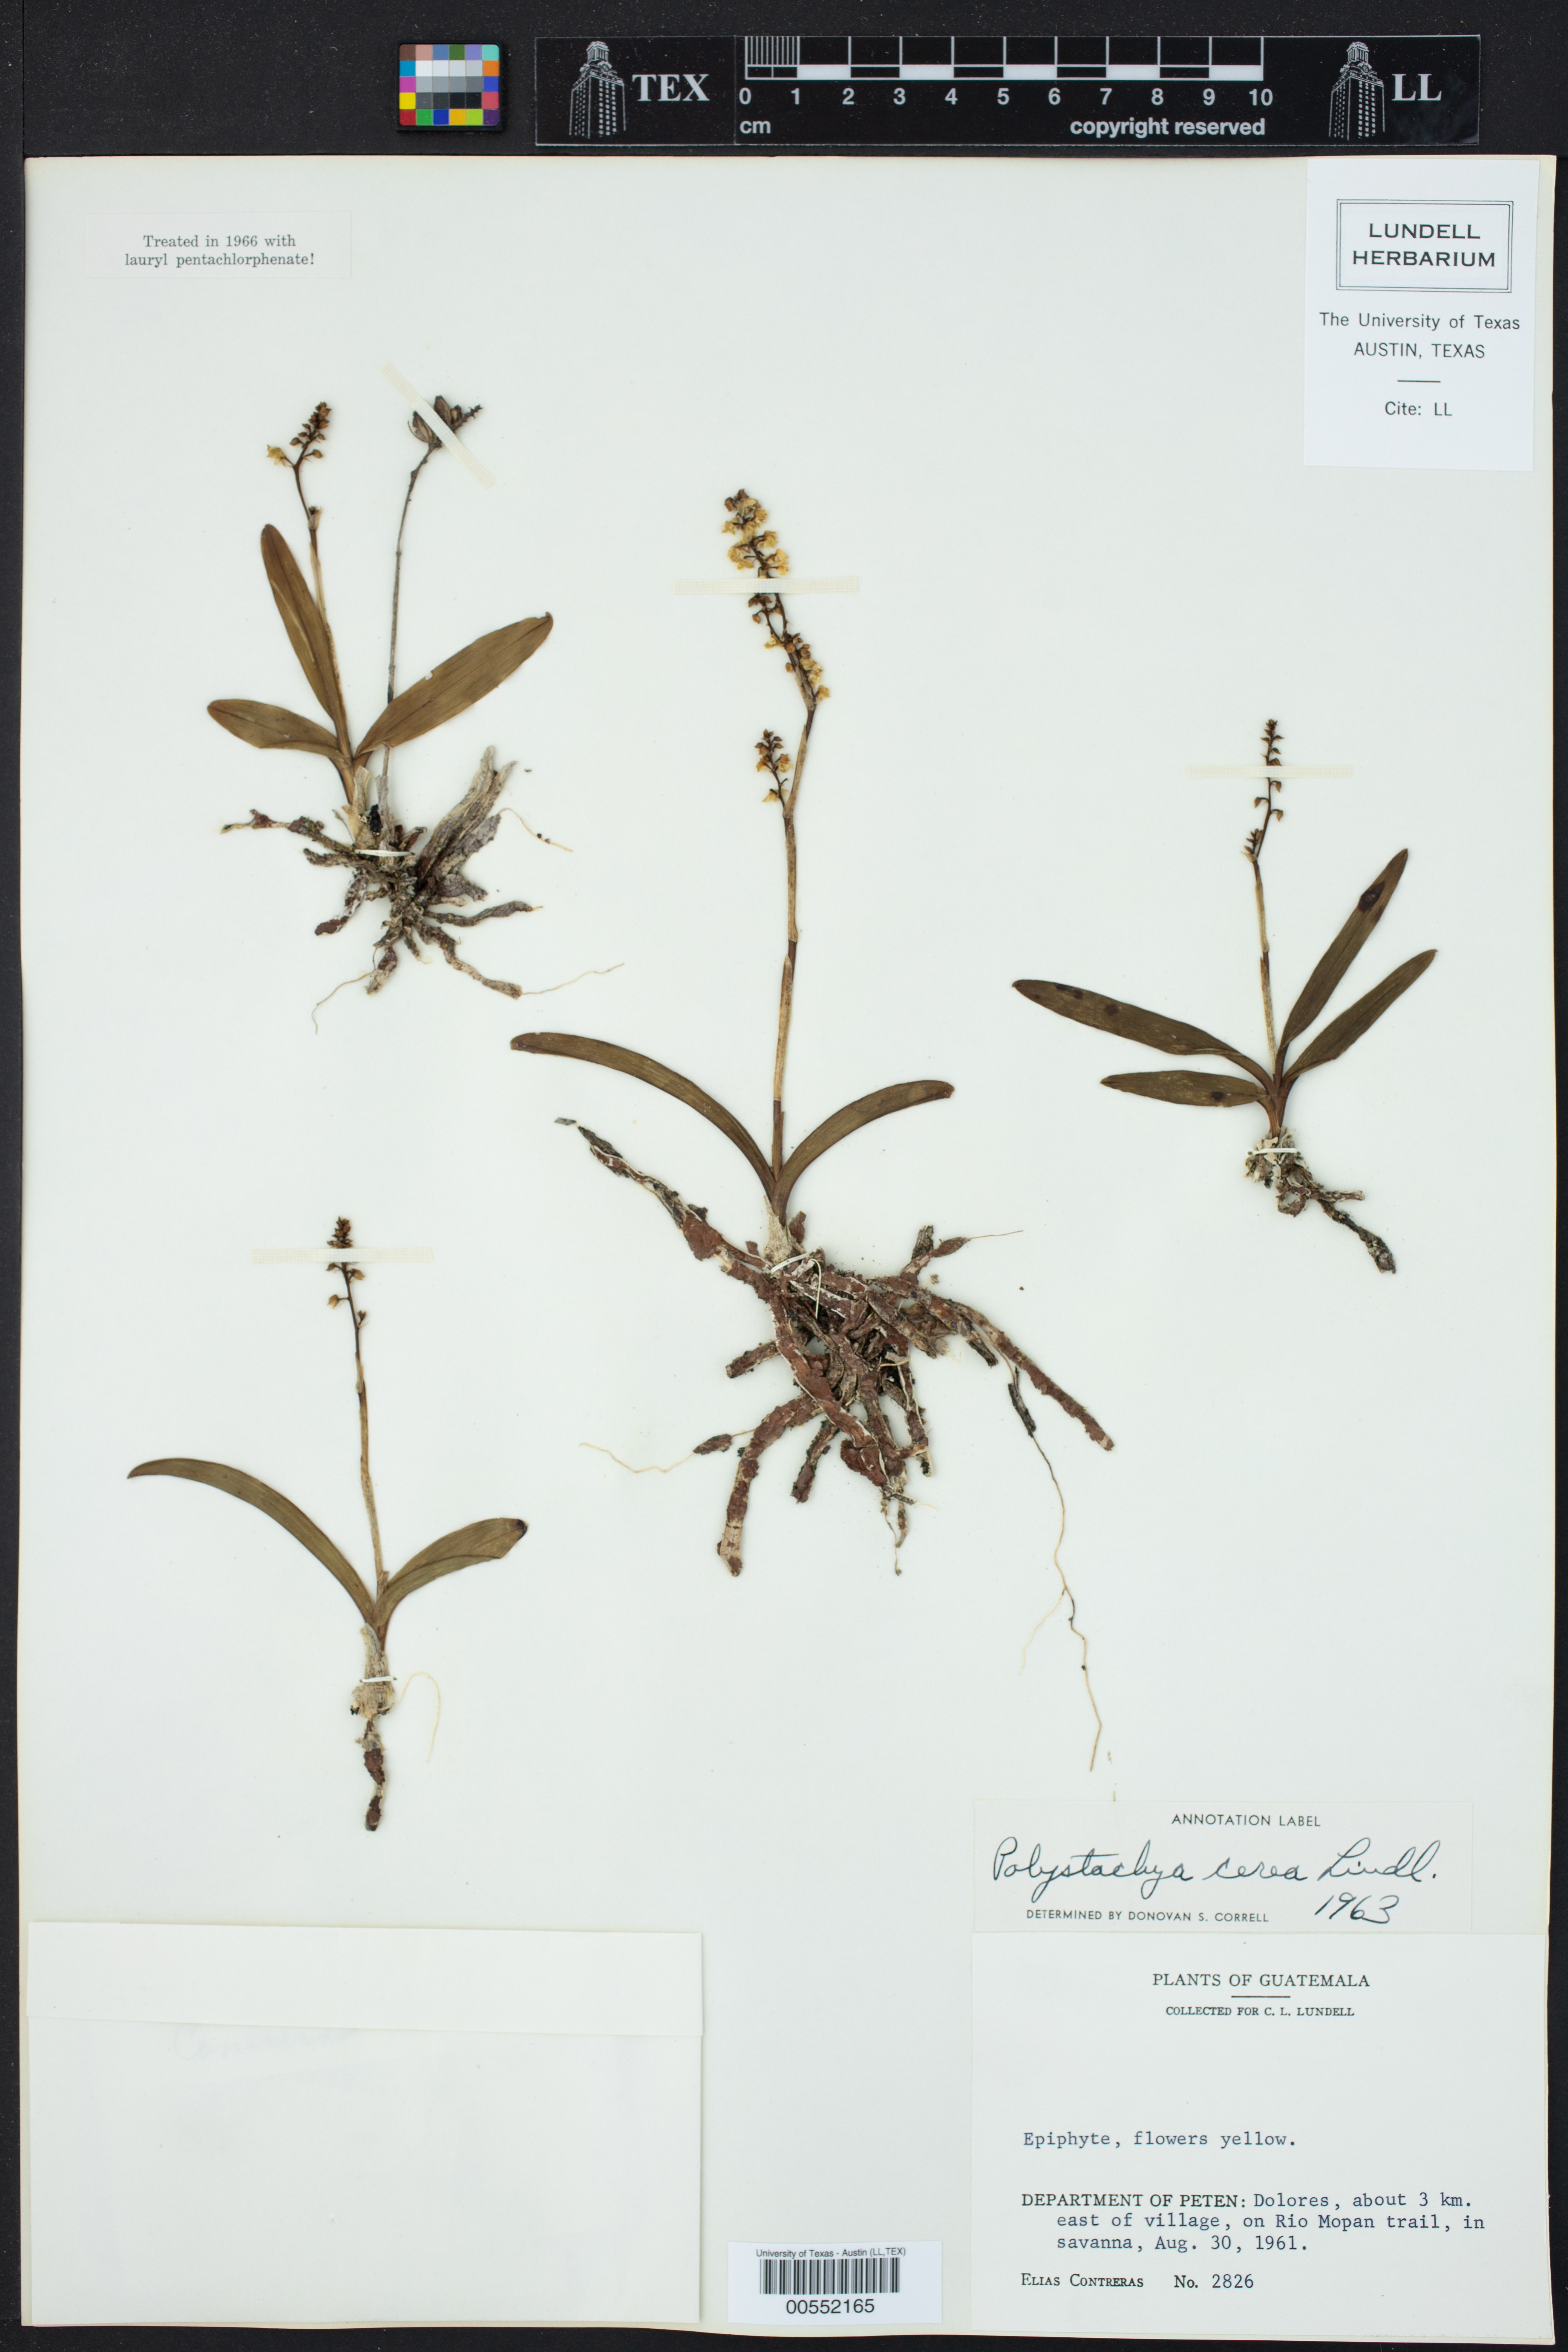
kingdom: Plantae
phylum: Tracheophyta
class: Liliopsida
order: Asparagales
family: Orchidaceae
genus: Polystachya
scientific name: Polystachya cerea
